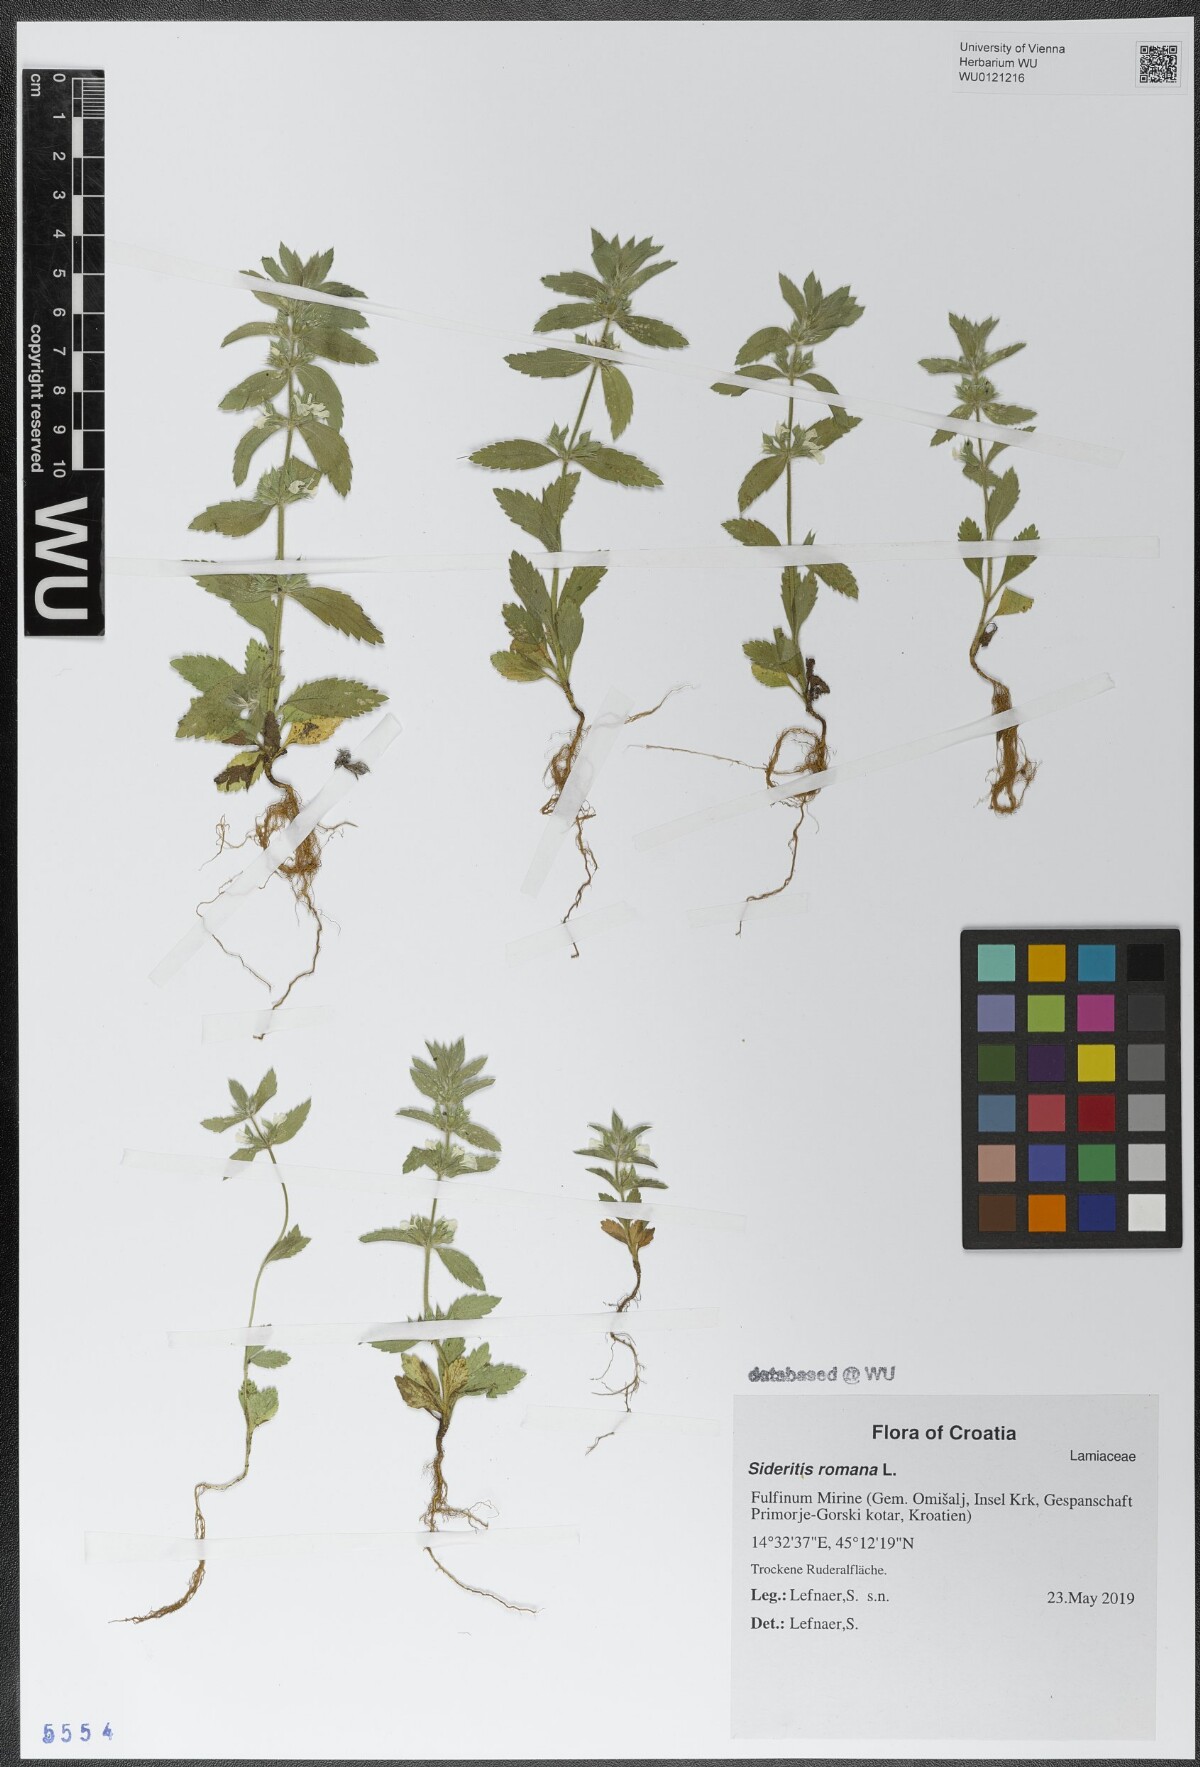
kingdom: Plantae
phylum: Tracheophyta
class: Magnoliopsida
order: Lamiales
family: Lamiaceae
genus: Sideritis
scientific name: Sideritis romana
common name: Simplebeak ironwort
